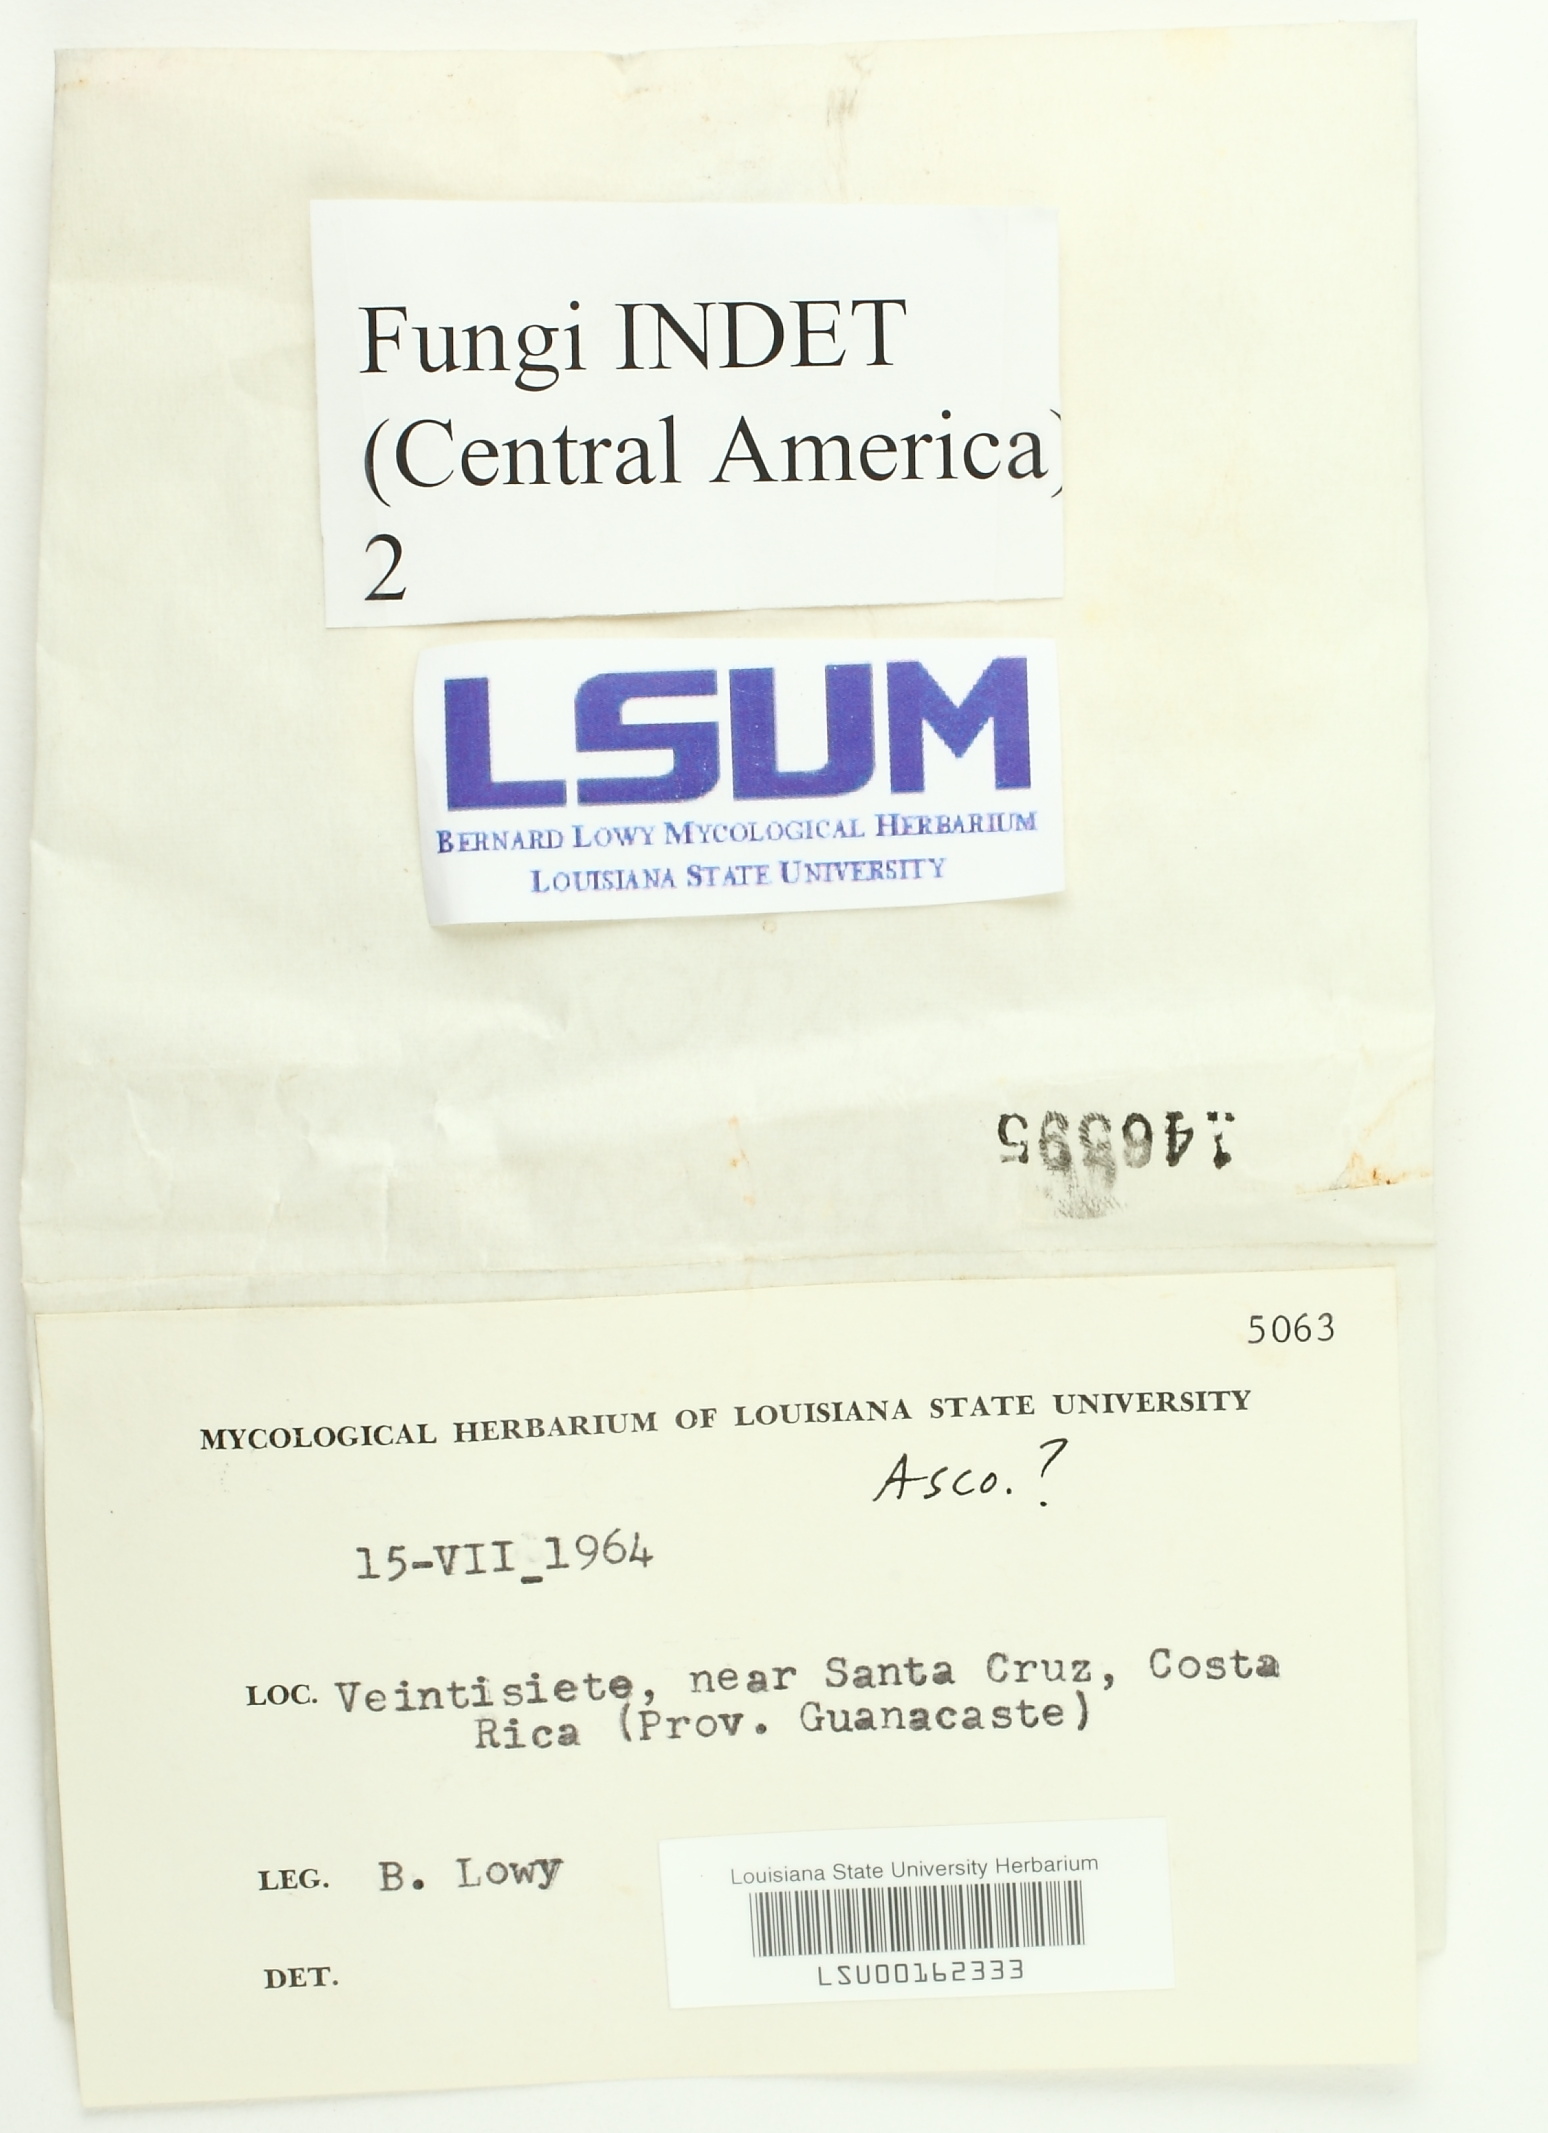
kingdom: Fungi
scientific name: Fungi
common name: Fungi
